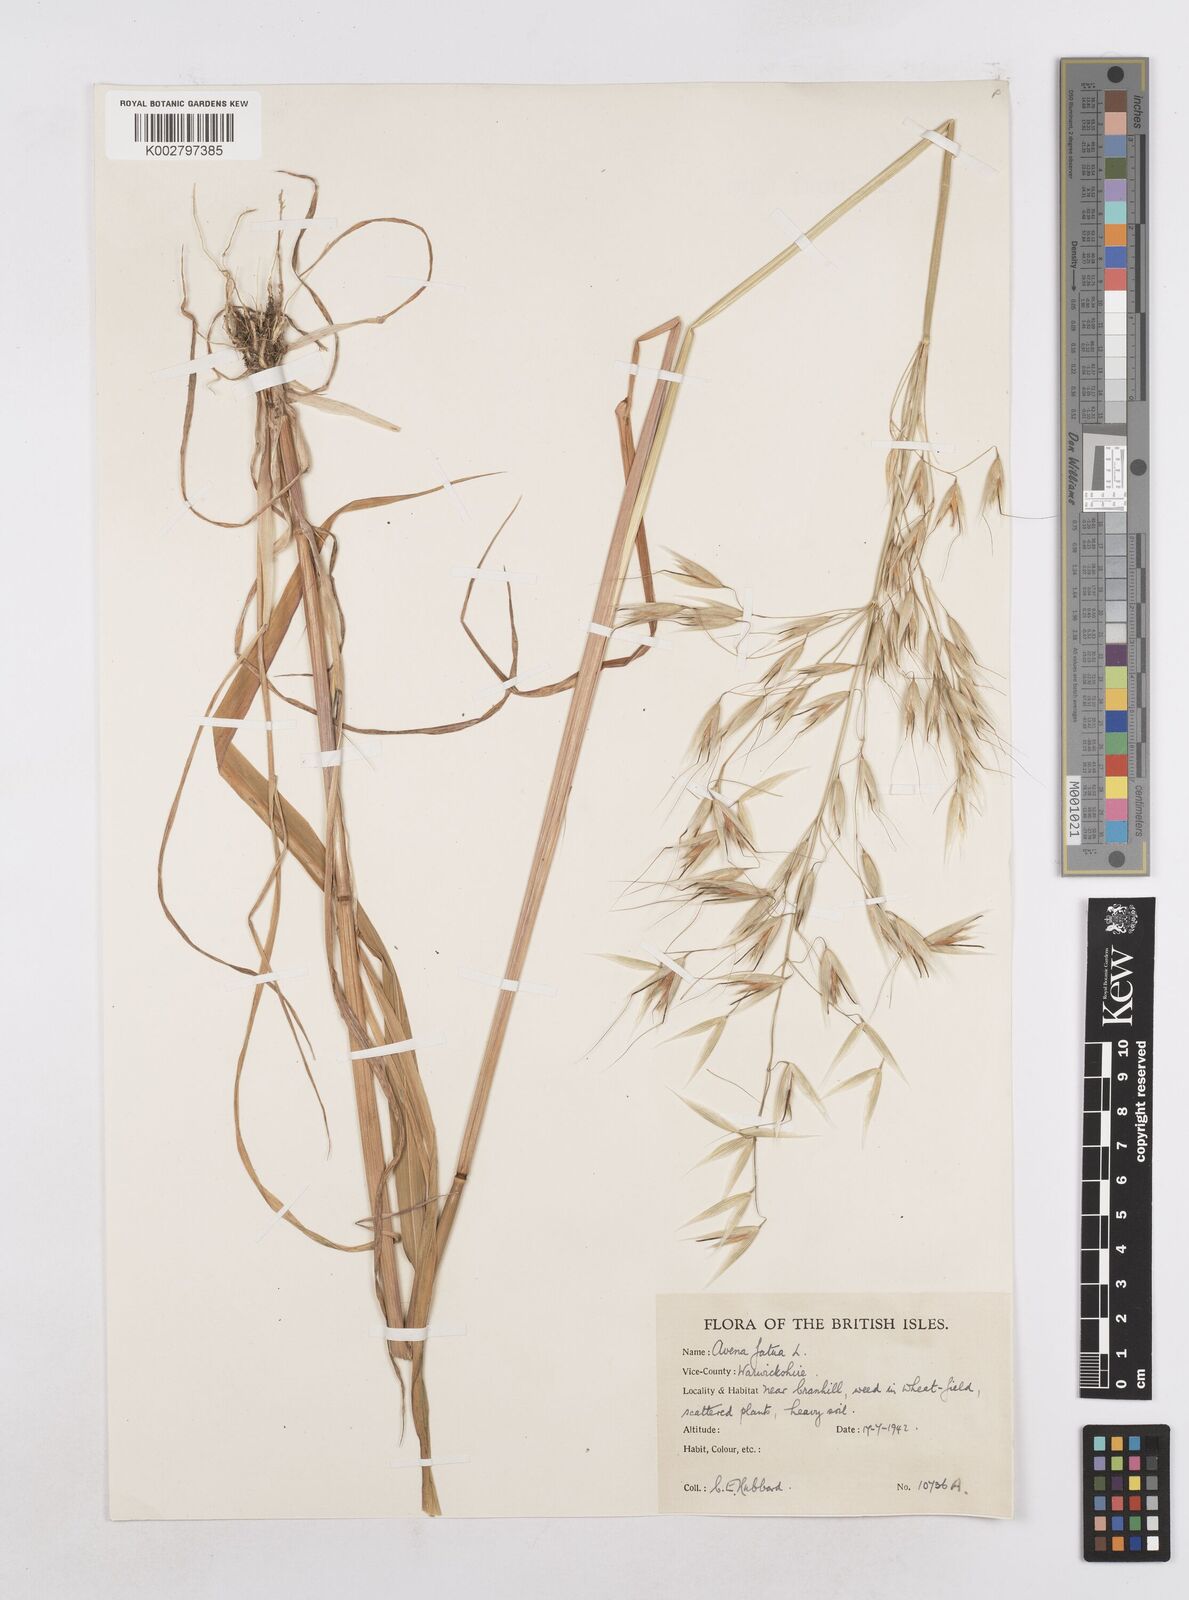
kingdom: Plantae
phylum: Tracheophyta
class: Liliopsida
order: Poales
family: Poaceae
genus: Avena
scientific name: Avena fatua
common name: Wild oat
